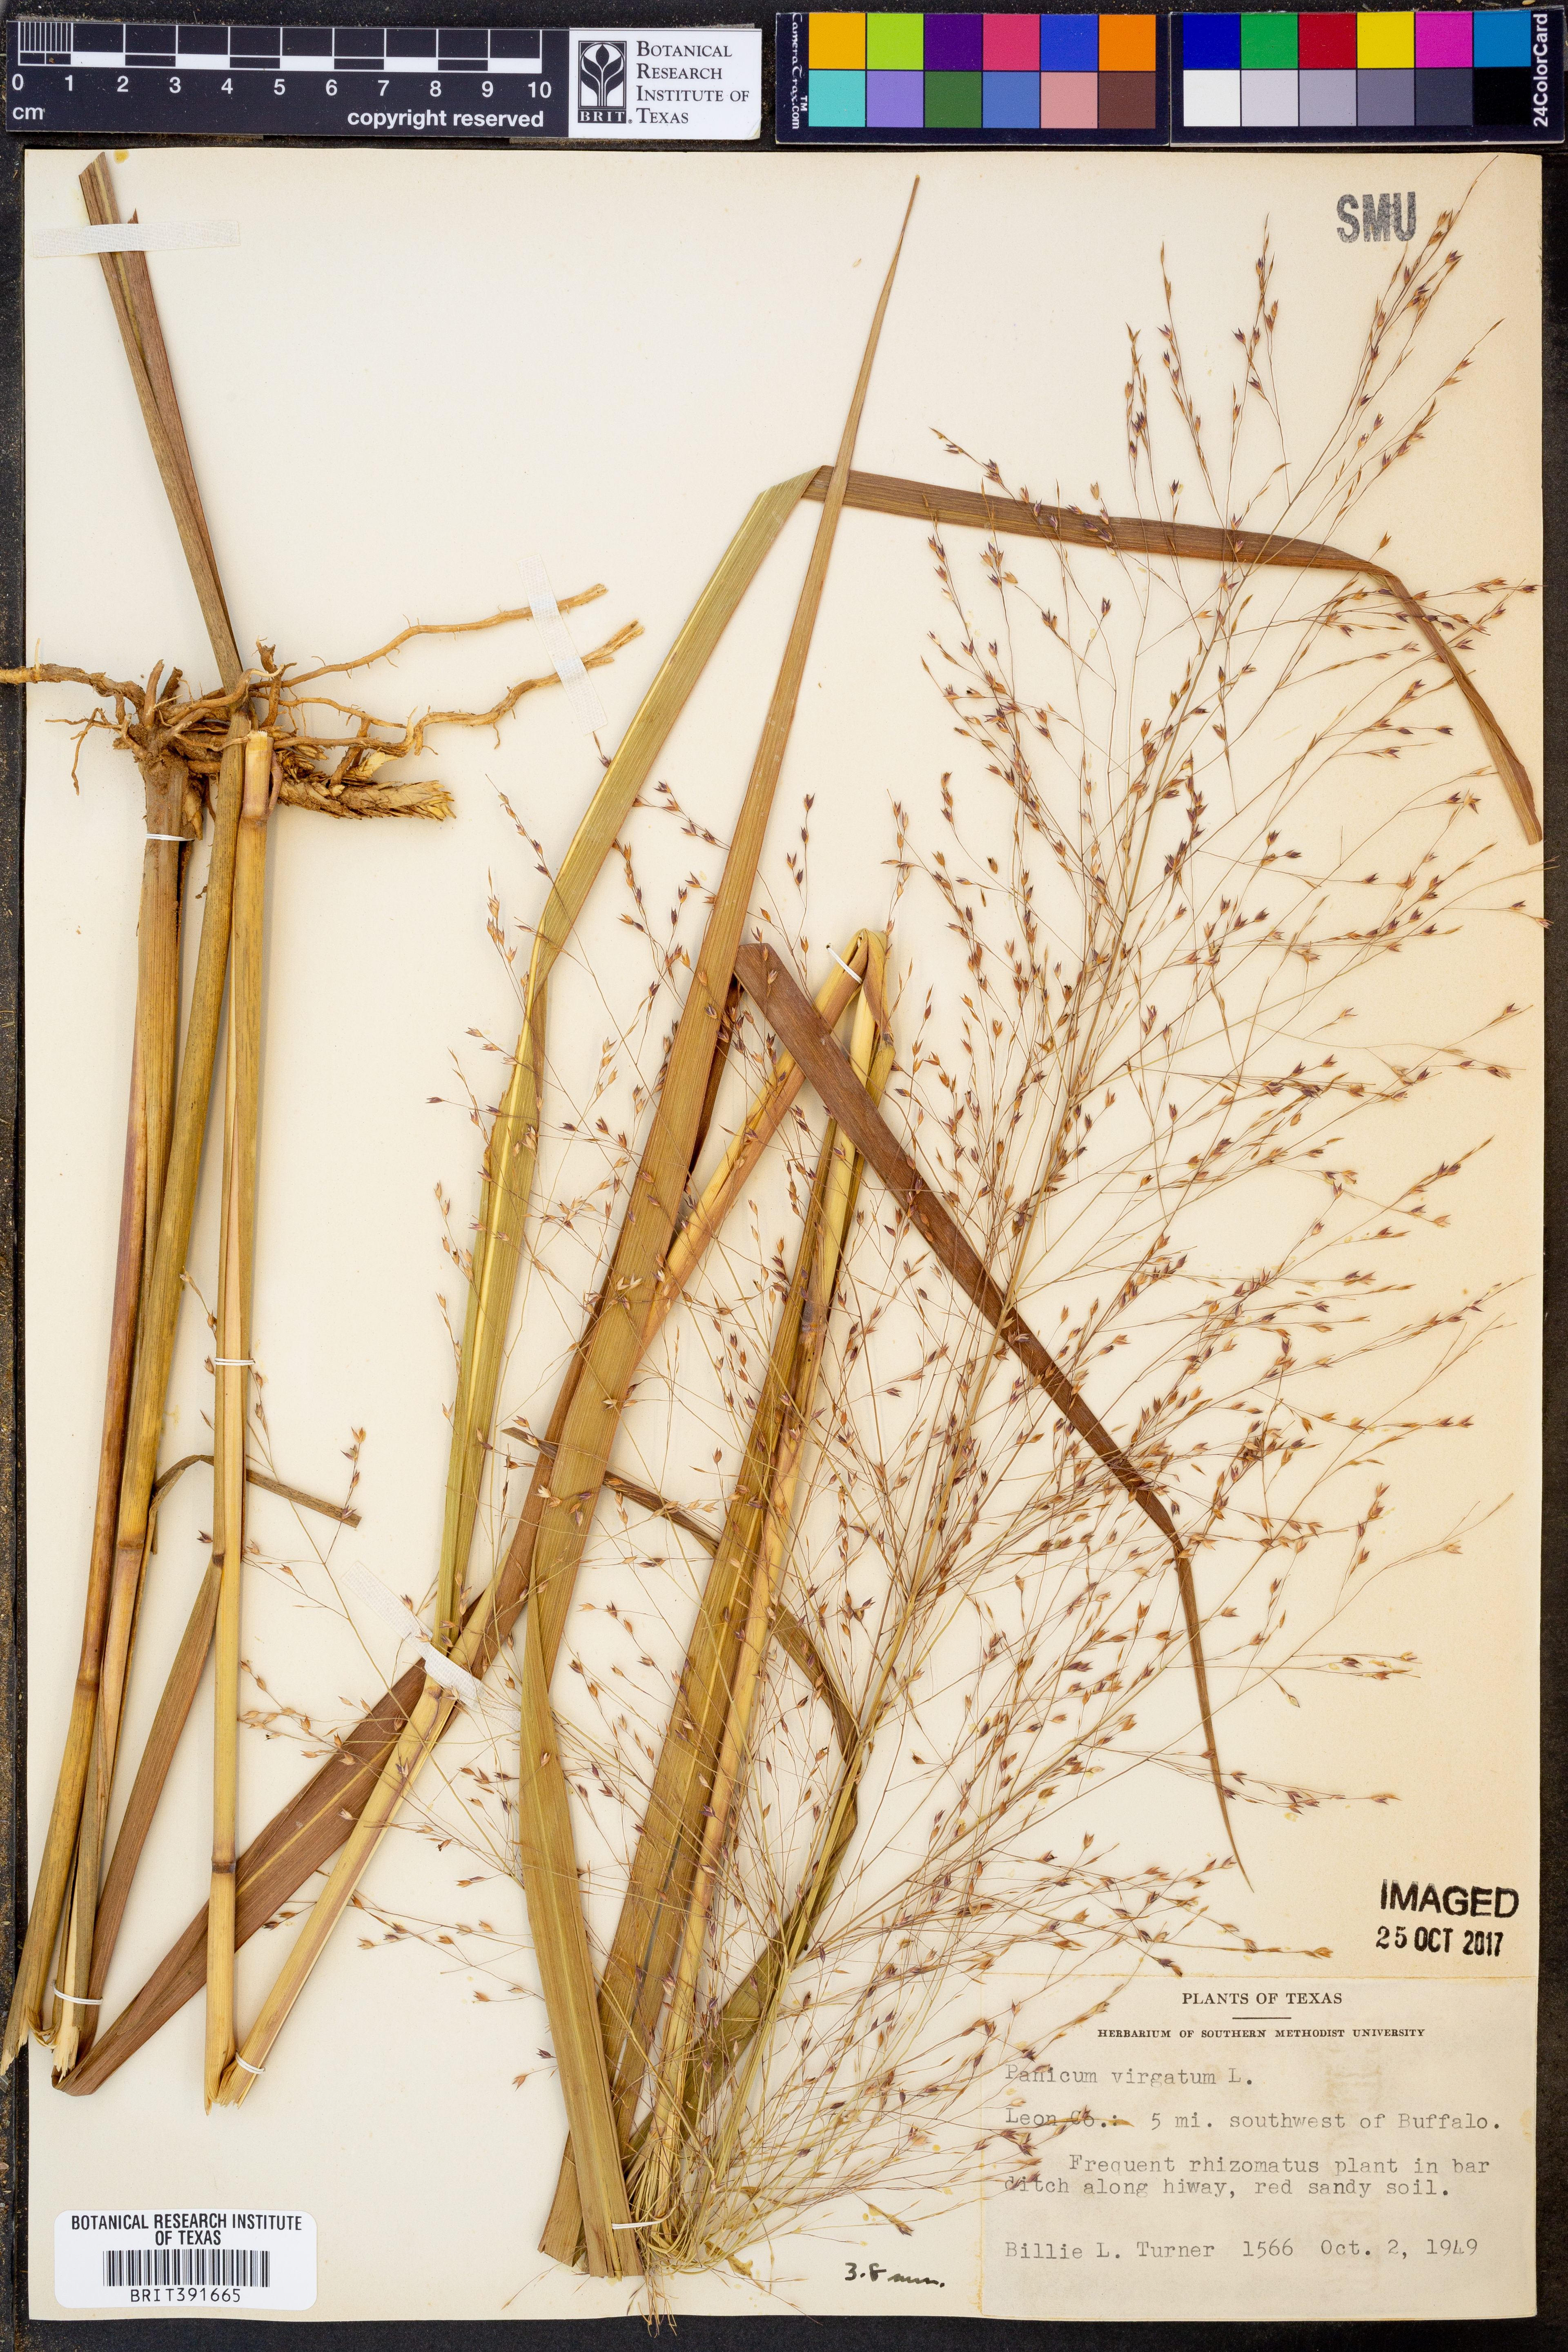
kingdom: Plantae
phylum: Tracheophyta
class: Liliopsida
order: Poales
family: Poaceae
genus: Panicum
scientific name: Panicum virgatum
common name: Switchgrass
